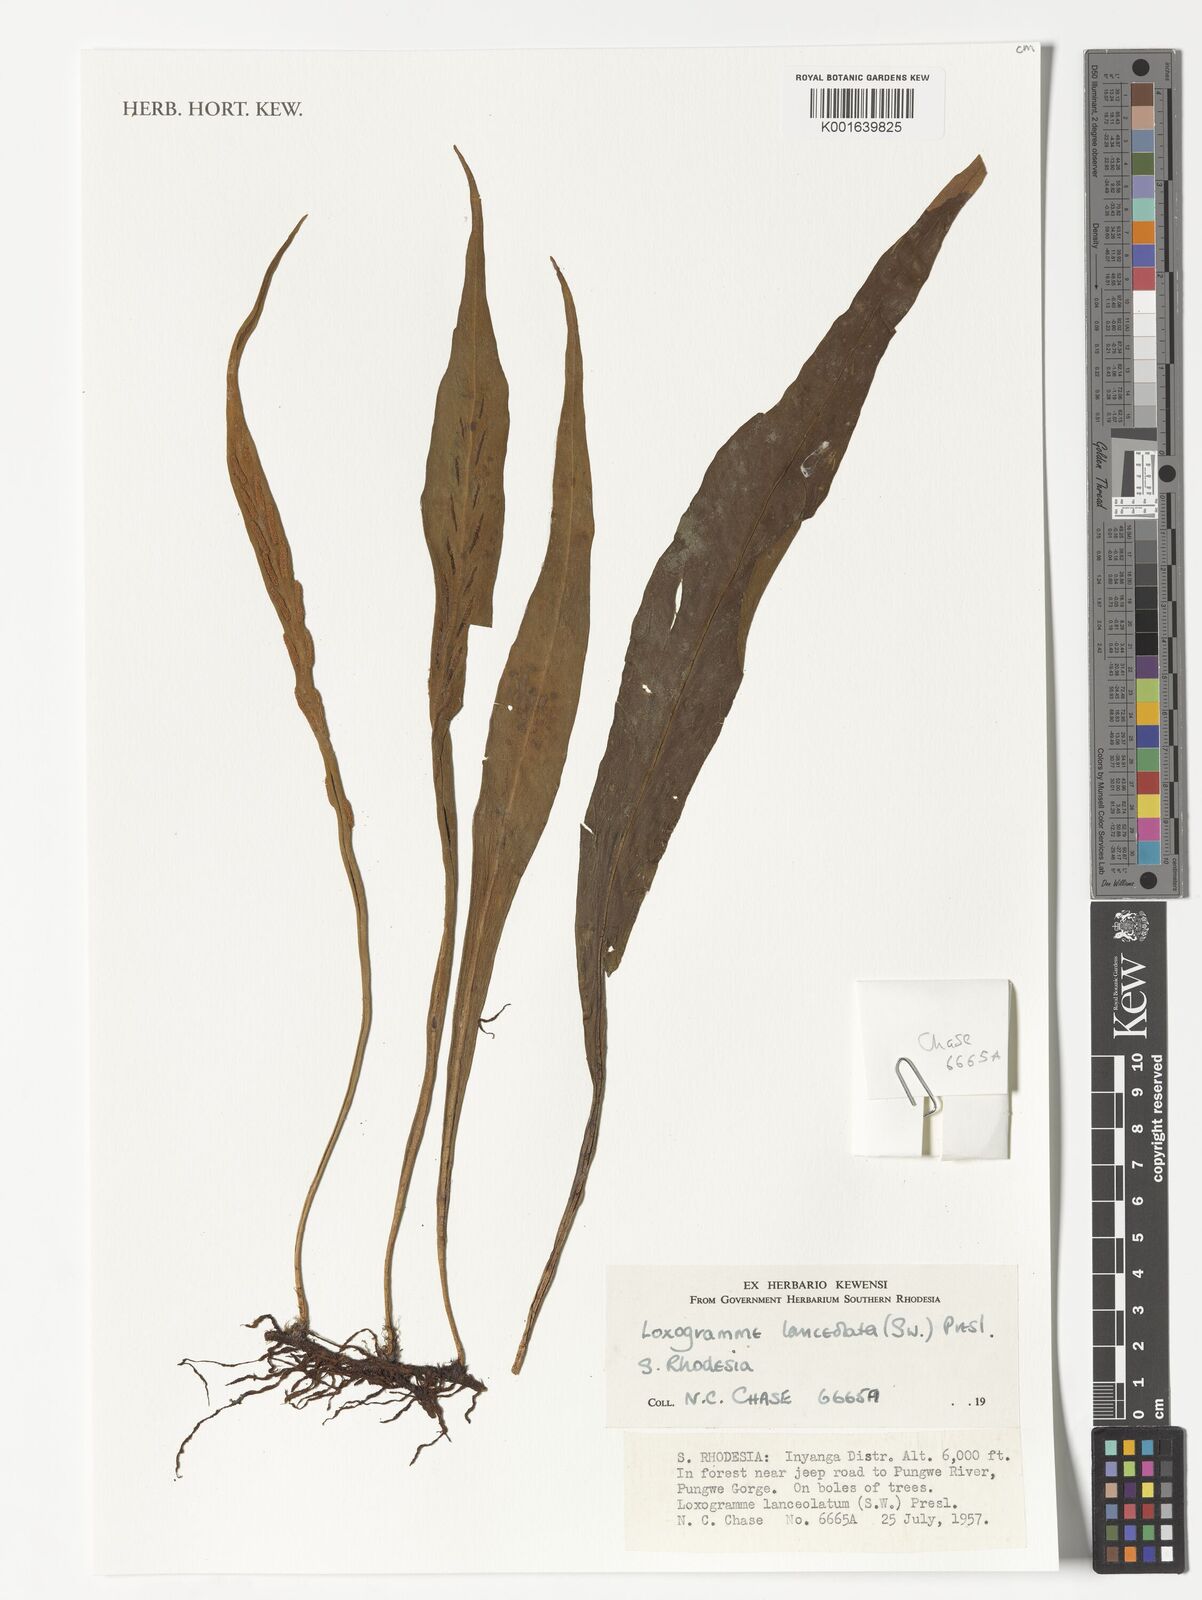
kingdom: Plantae
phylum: Tracheophyta
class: Polypodiopsida
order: Polypodiales
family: Polypodiaceae
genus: Loxogramme
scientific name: Loxogramme lanceolata
